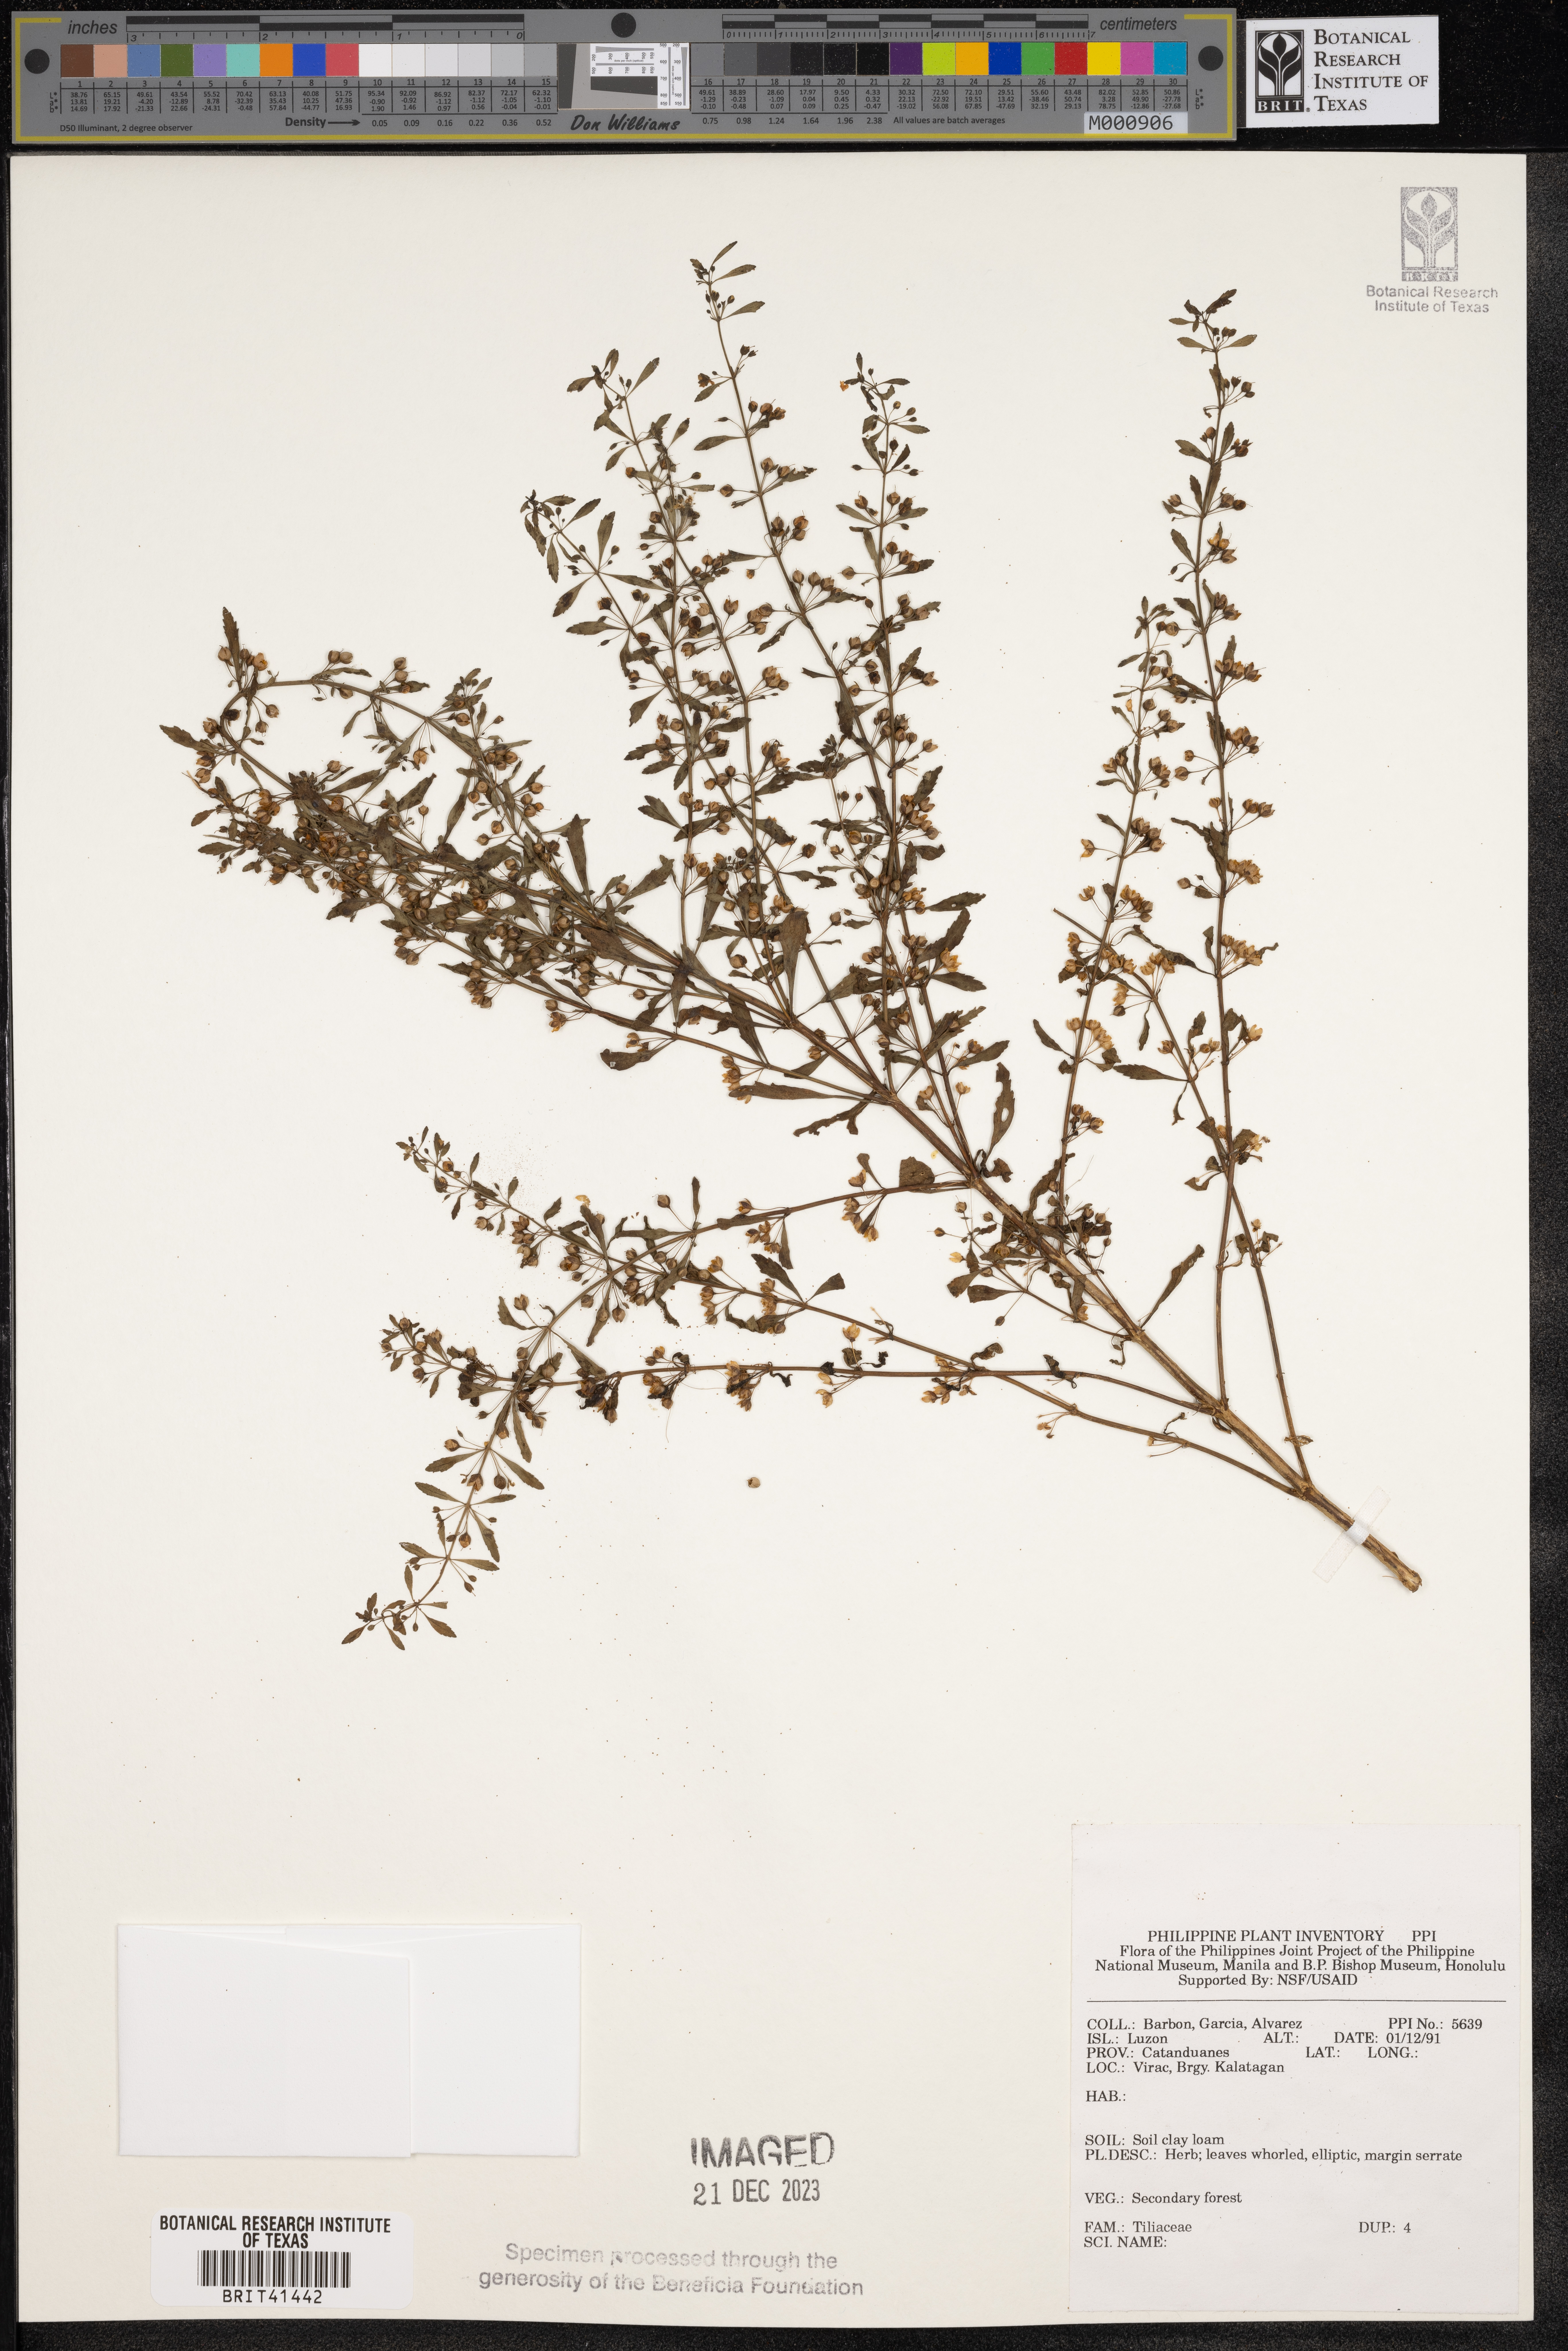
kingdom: Plantae
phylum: Tracheophyta
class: Magnoliopsida
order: Malvales
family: Tiliaceae
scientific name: Tiliaceae
